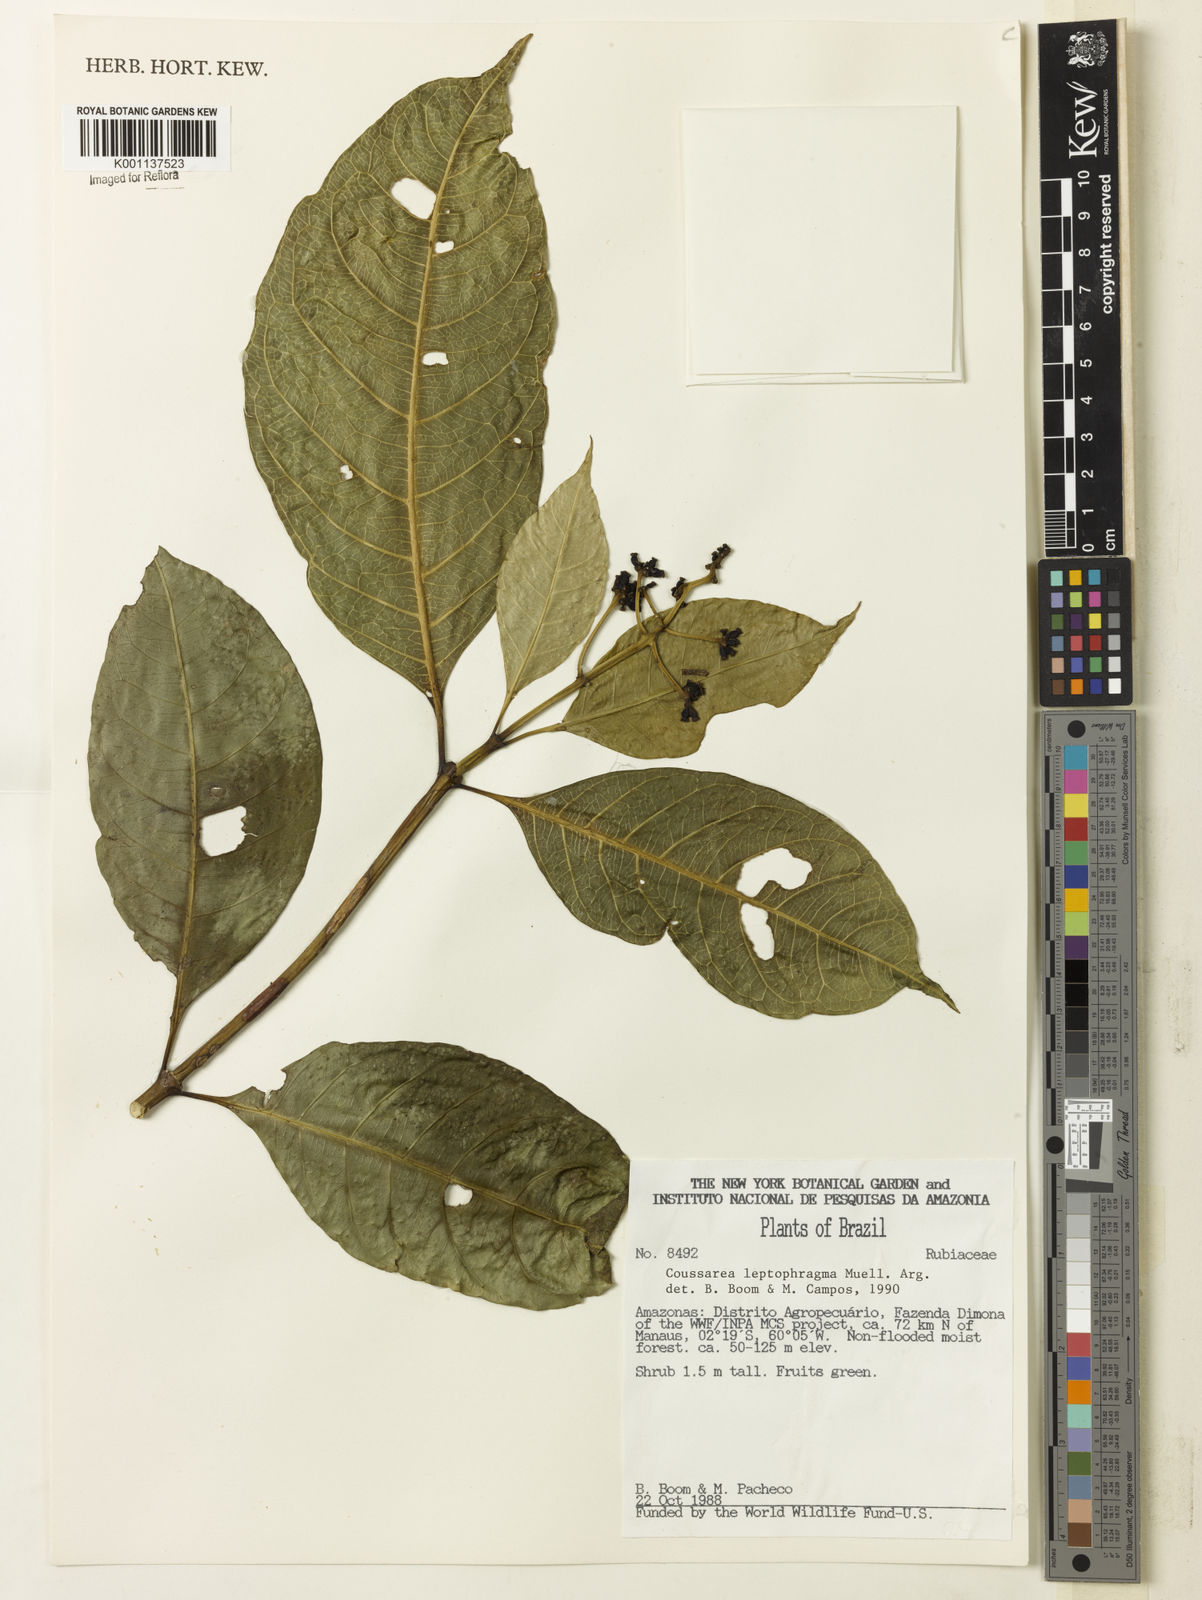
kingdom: Plantae
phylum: Tracheophyta
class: Magnoliopsida
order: Gentianales
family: Rubiaceae
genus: Coussarea
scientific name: Coussarea
